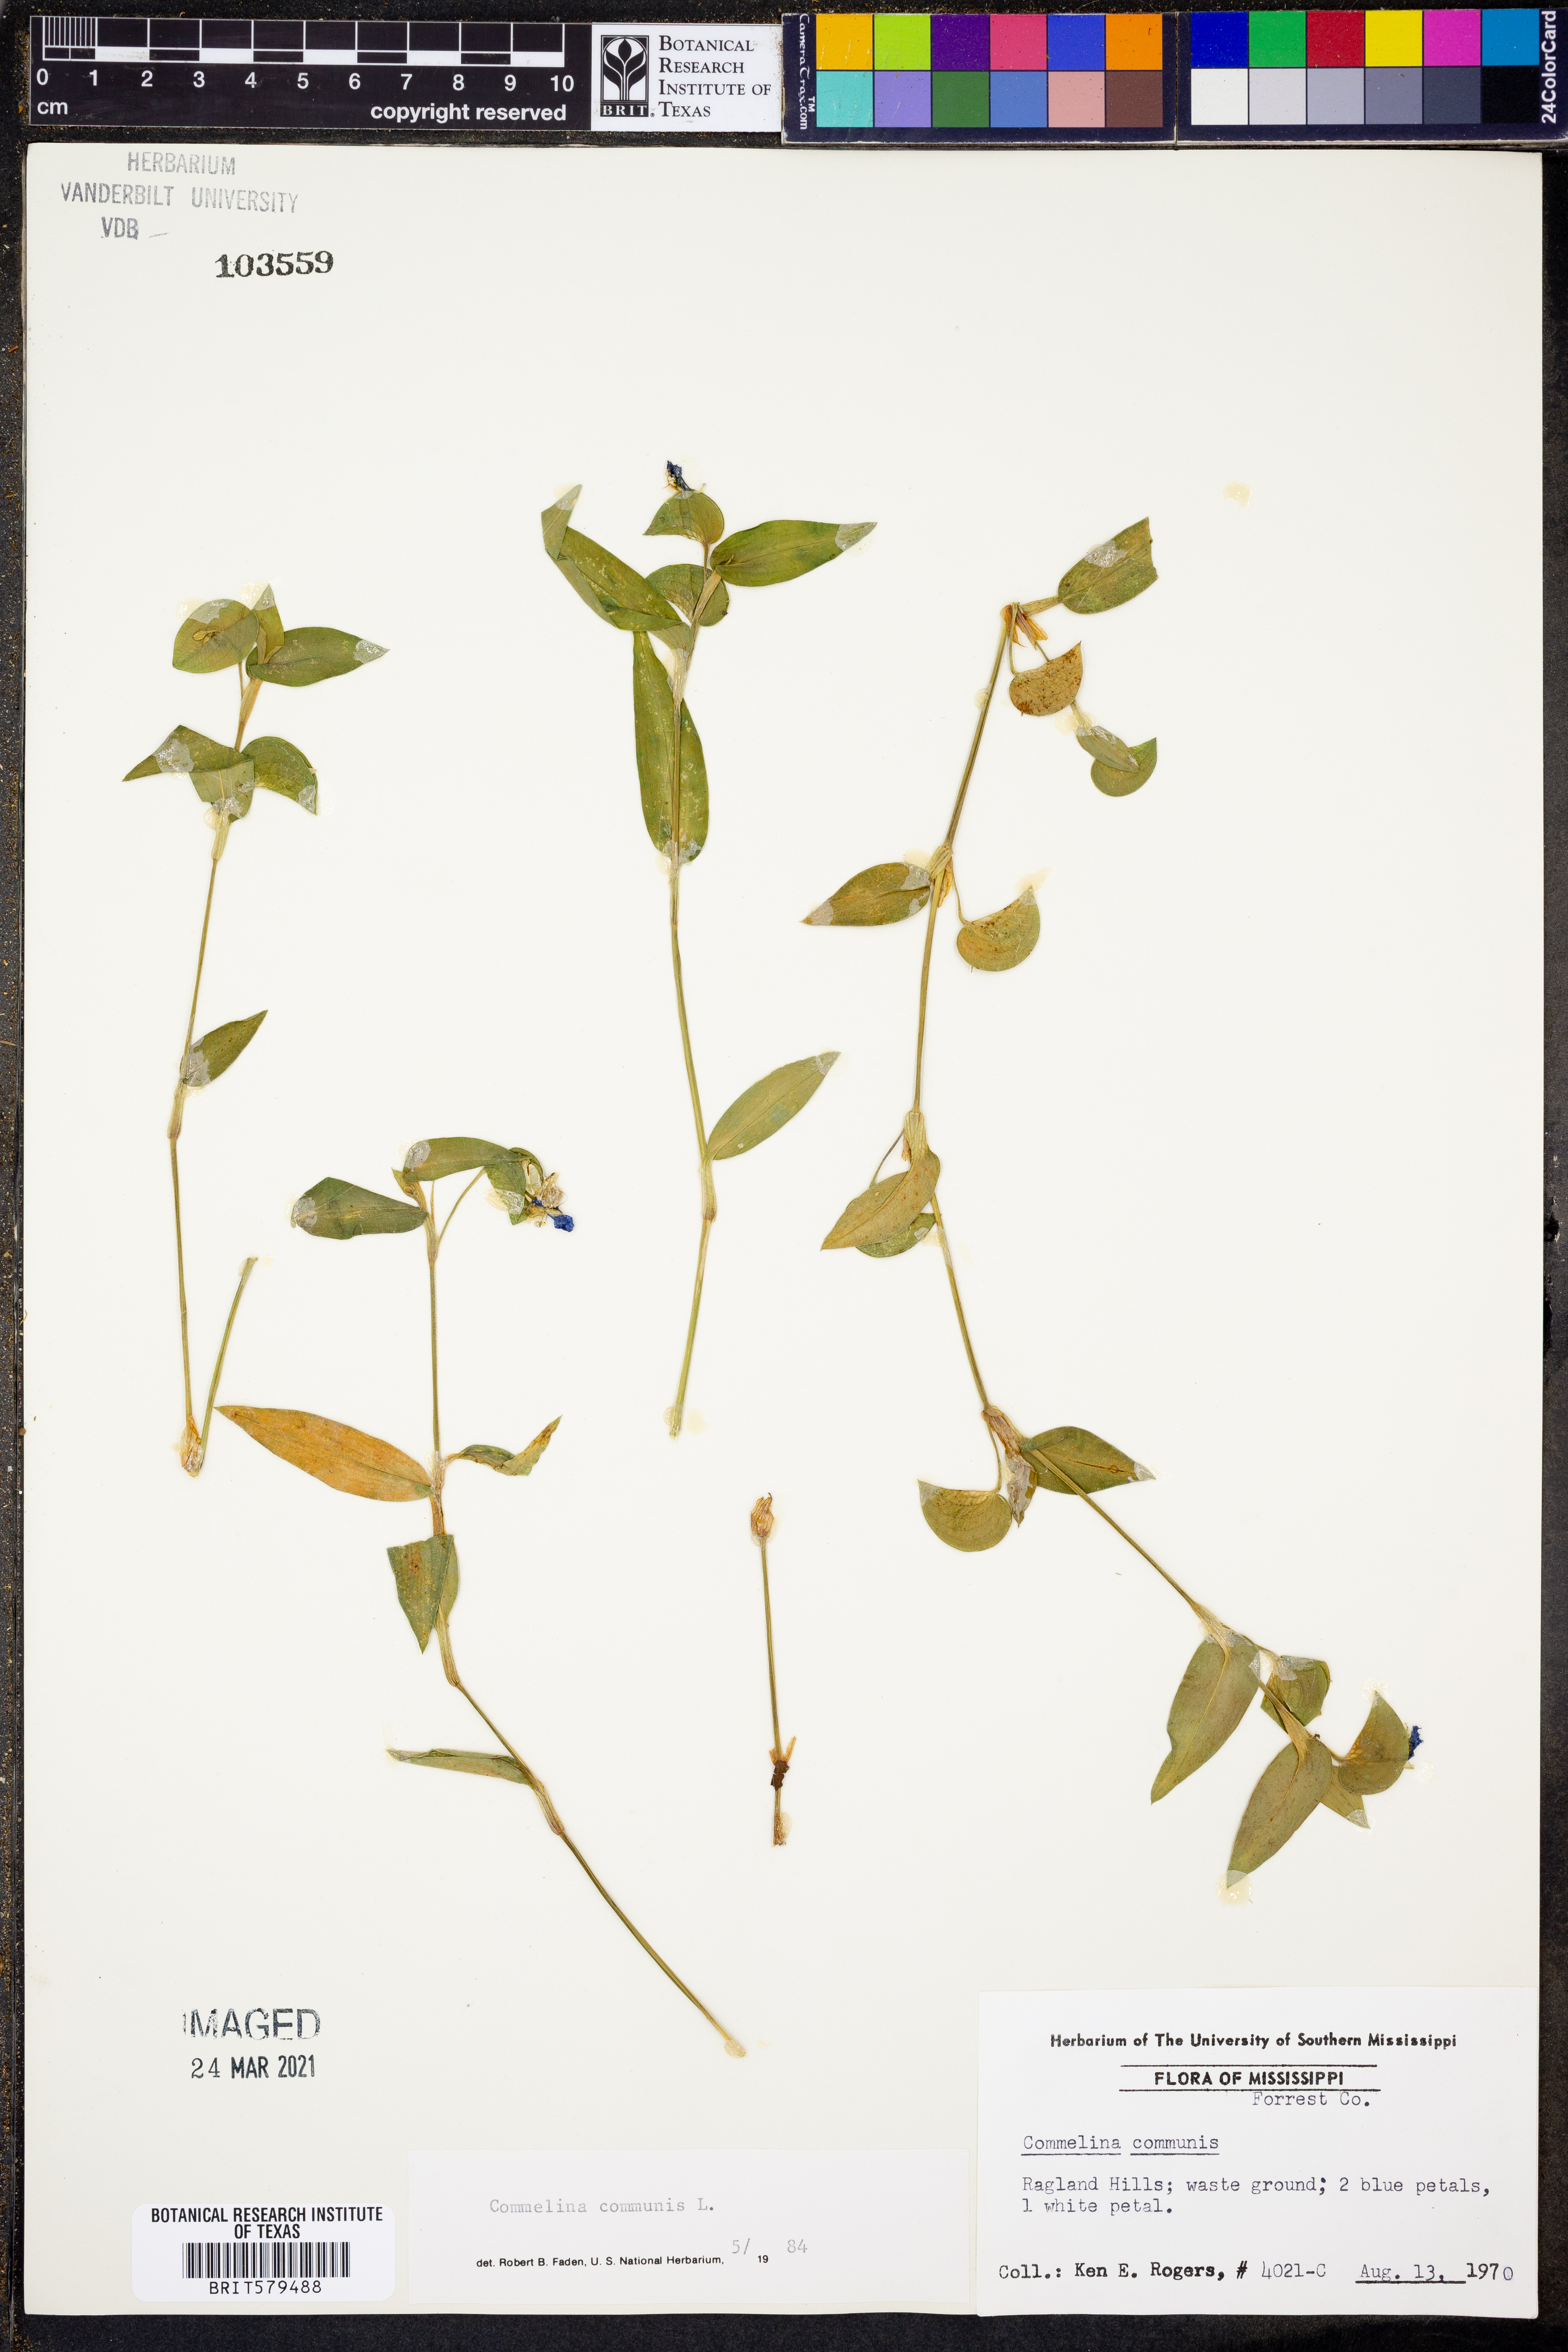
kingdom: Plantae
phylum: Tracheophyta
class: Liliopsida
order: Commelinales
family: Commelinaceae
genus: Commelina
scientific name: Commelina communis
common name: Asiatic dayflower
